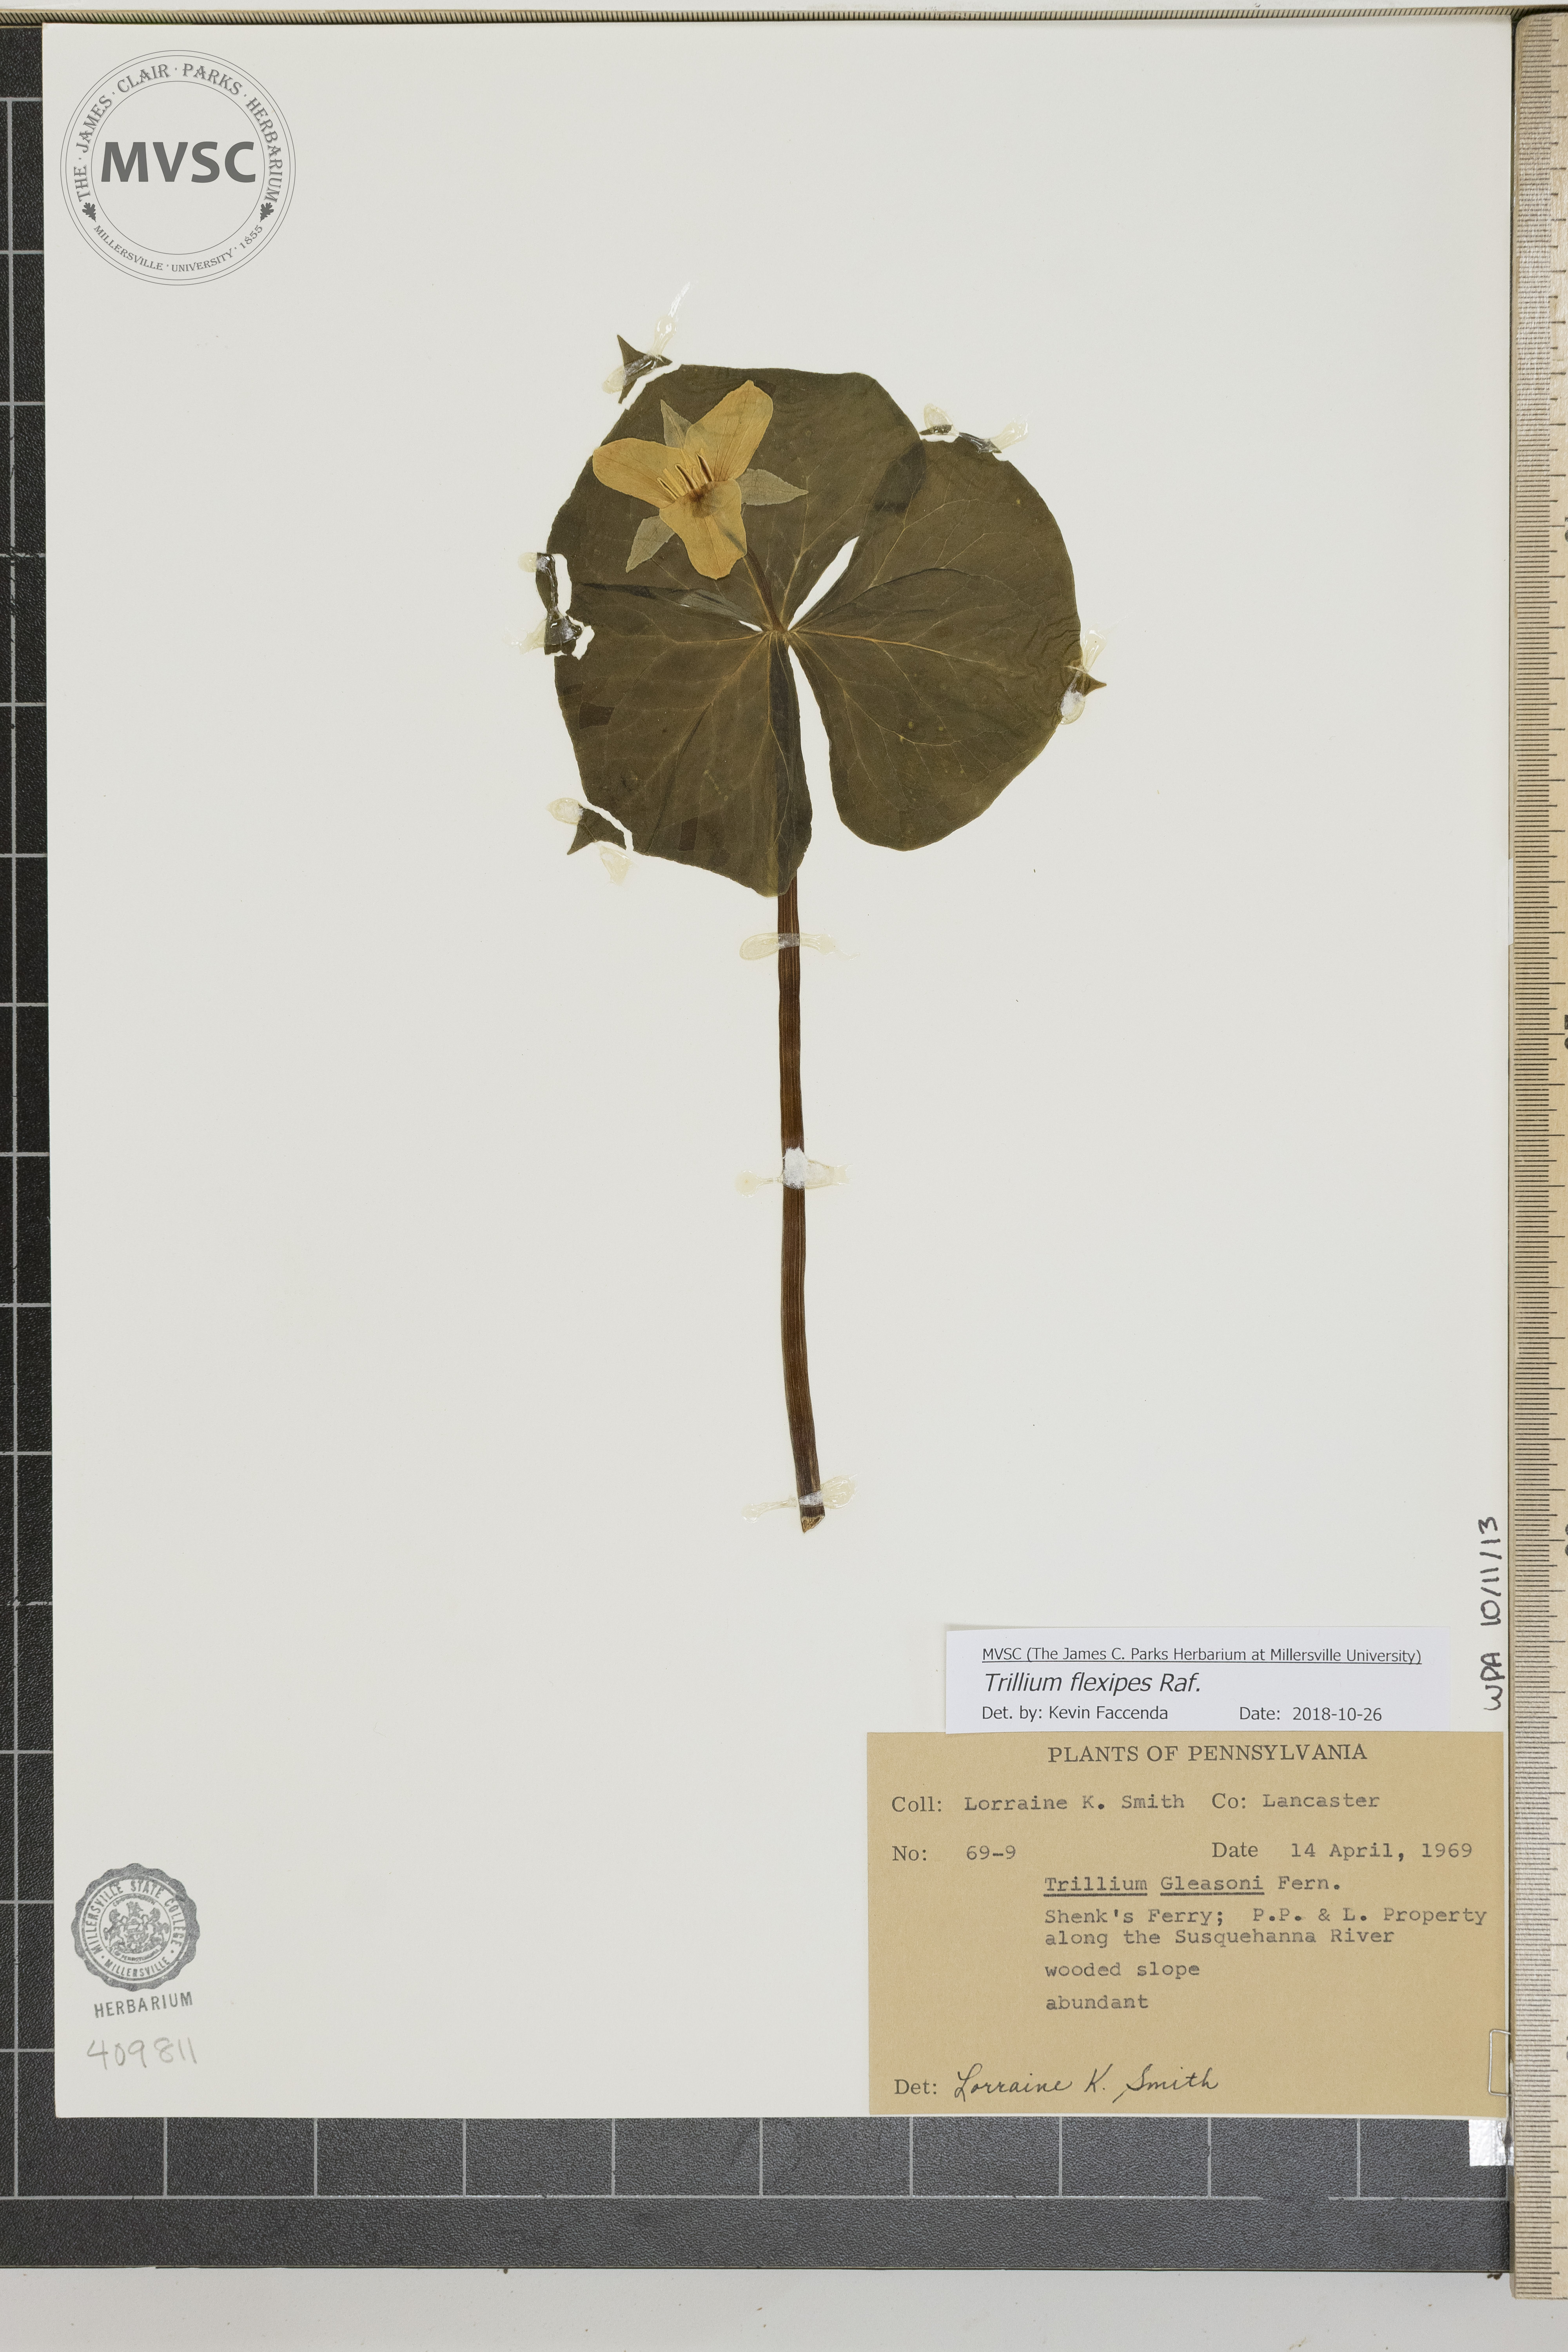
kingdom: Plantae
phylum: Tracheophyta
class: Liliopsida
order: Liliales
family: Melanthiaceae
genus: Trillium
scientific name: Trillium flexipes
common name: Drooping trillium
